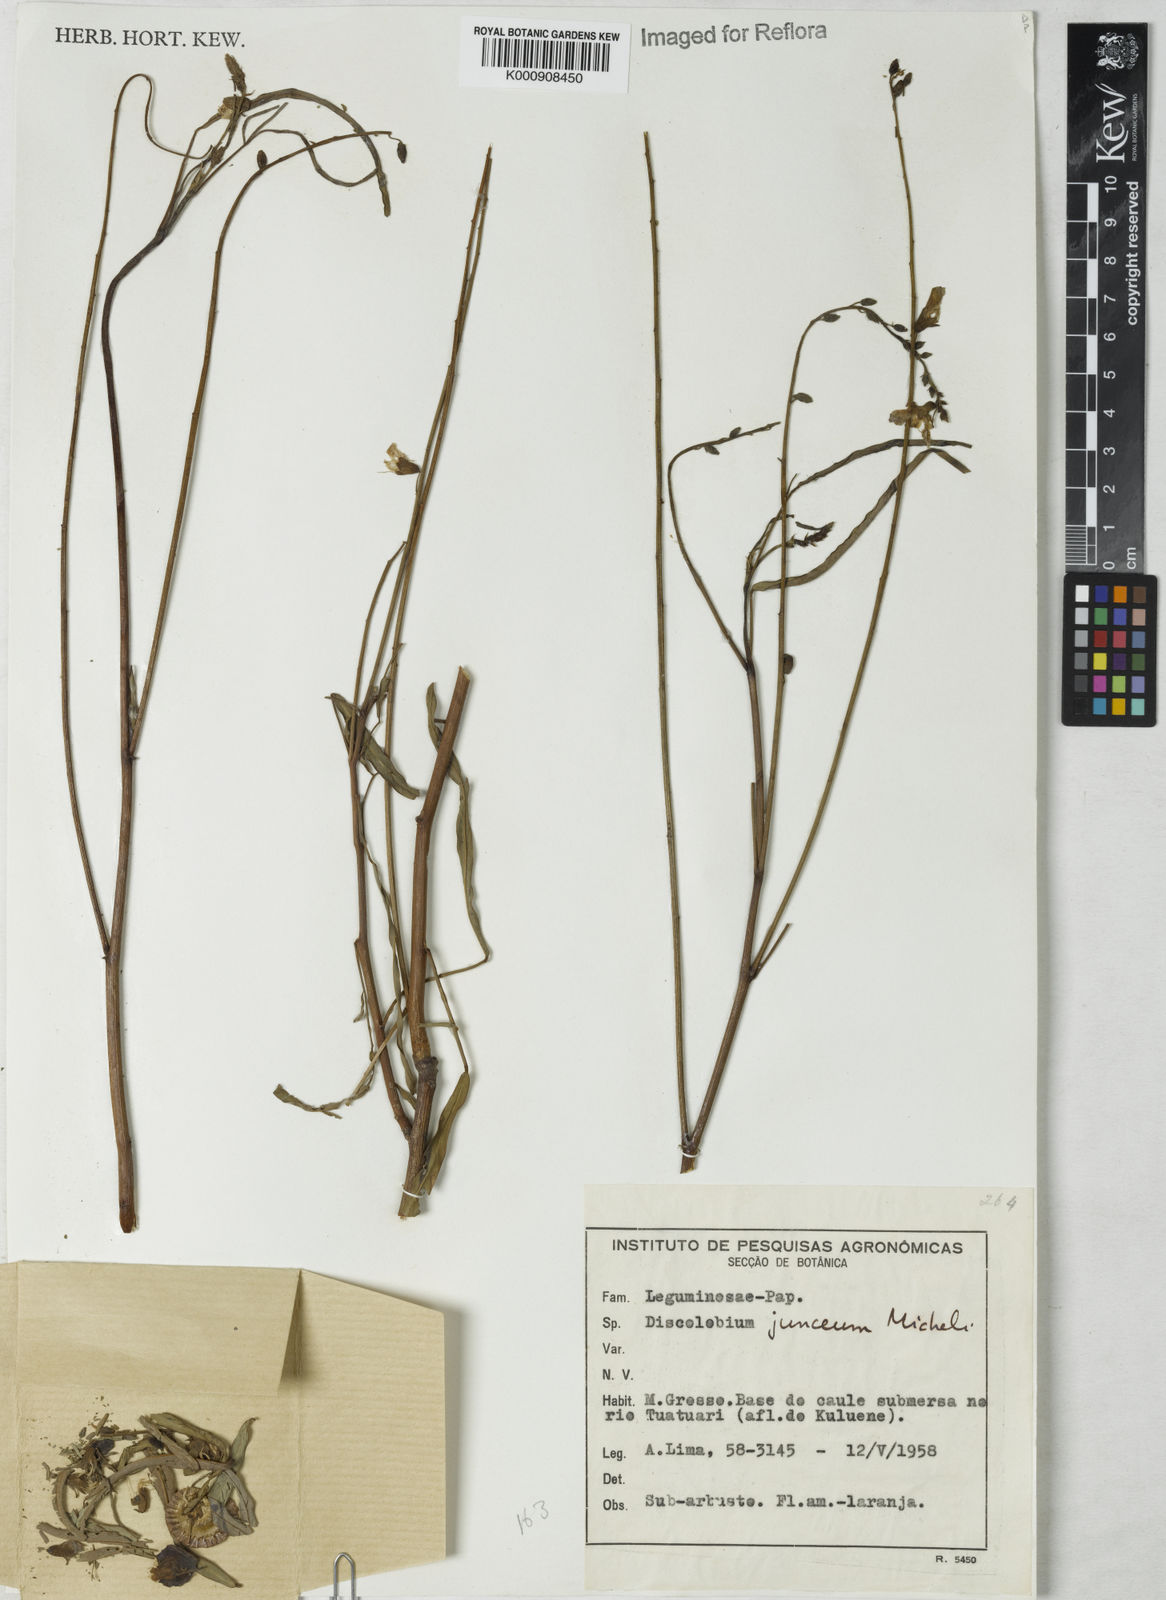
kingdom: Plantae
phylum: Tracheophyta
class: Magnoliopsida
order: Fabales
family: Fabaceae
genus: Discolobium
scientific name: Discolobium junceum
